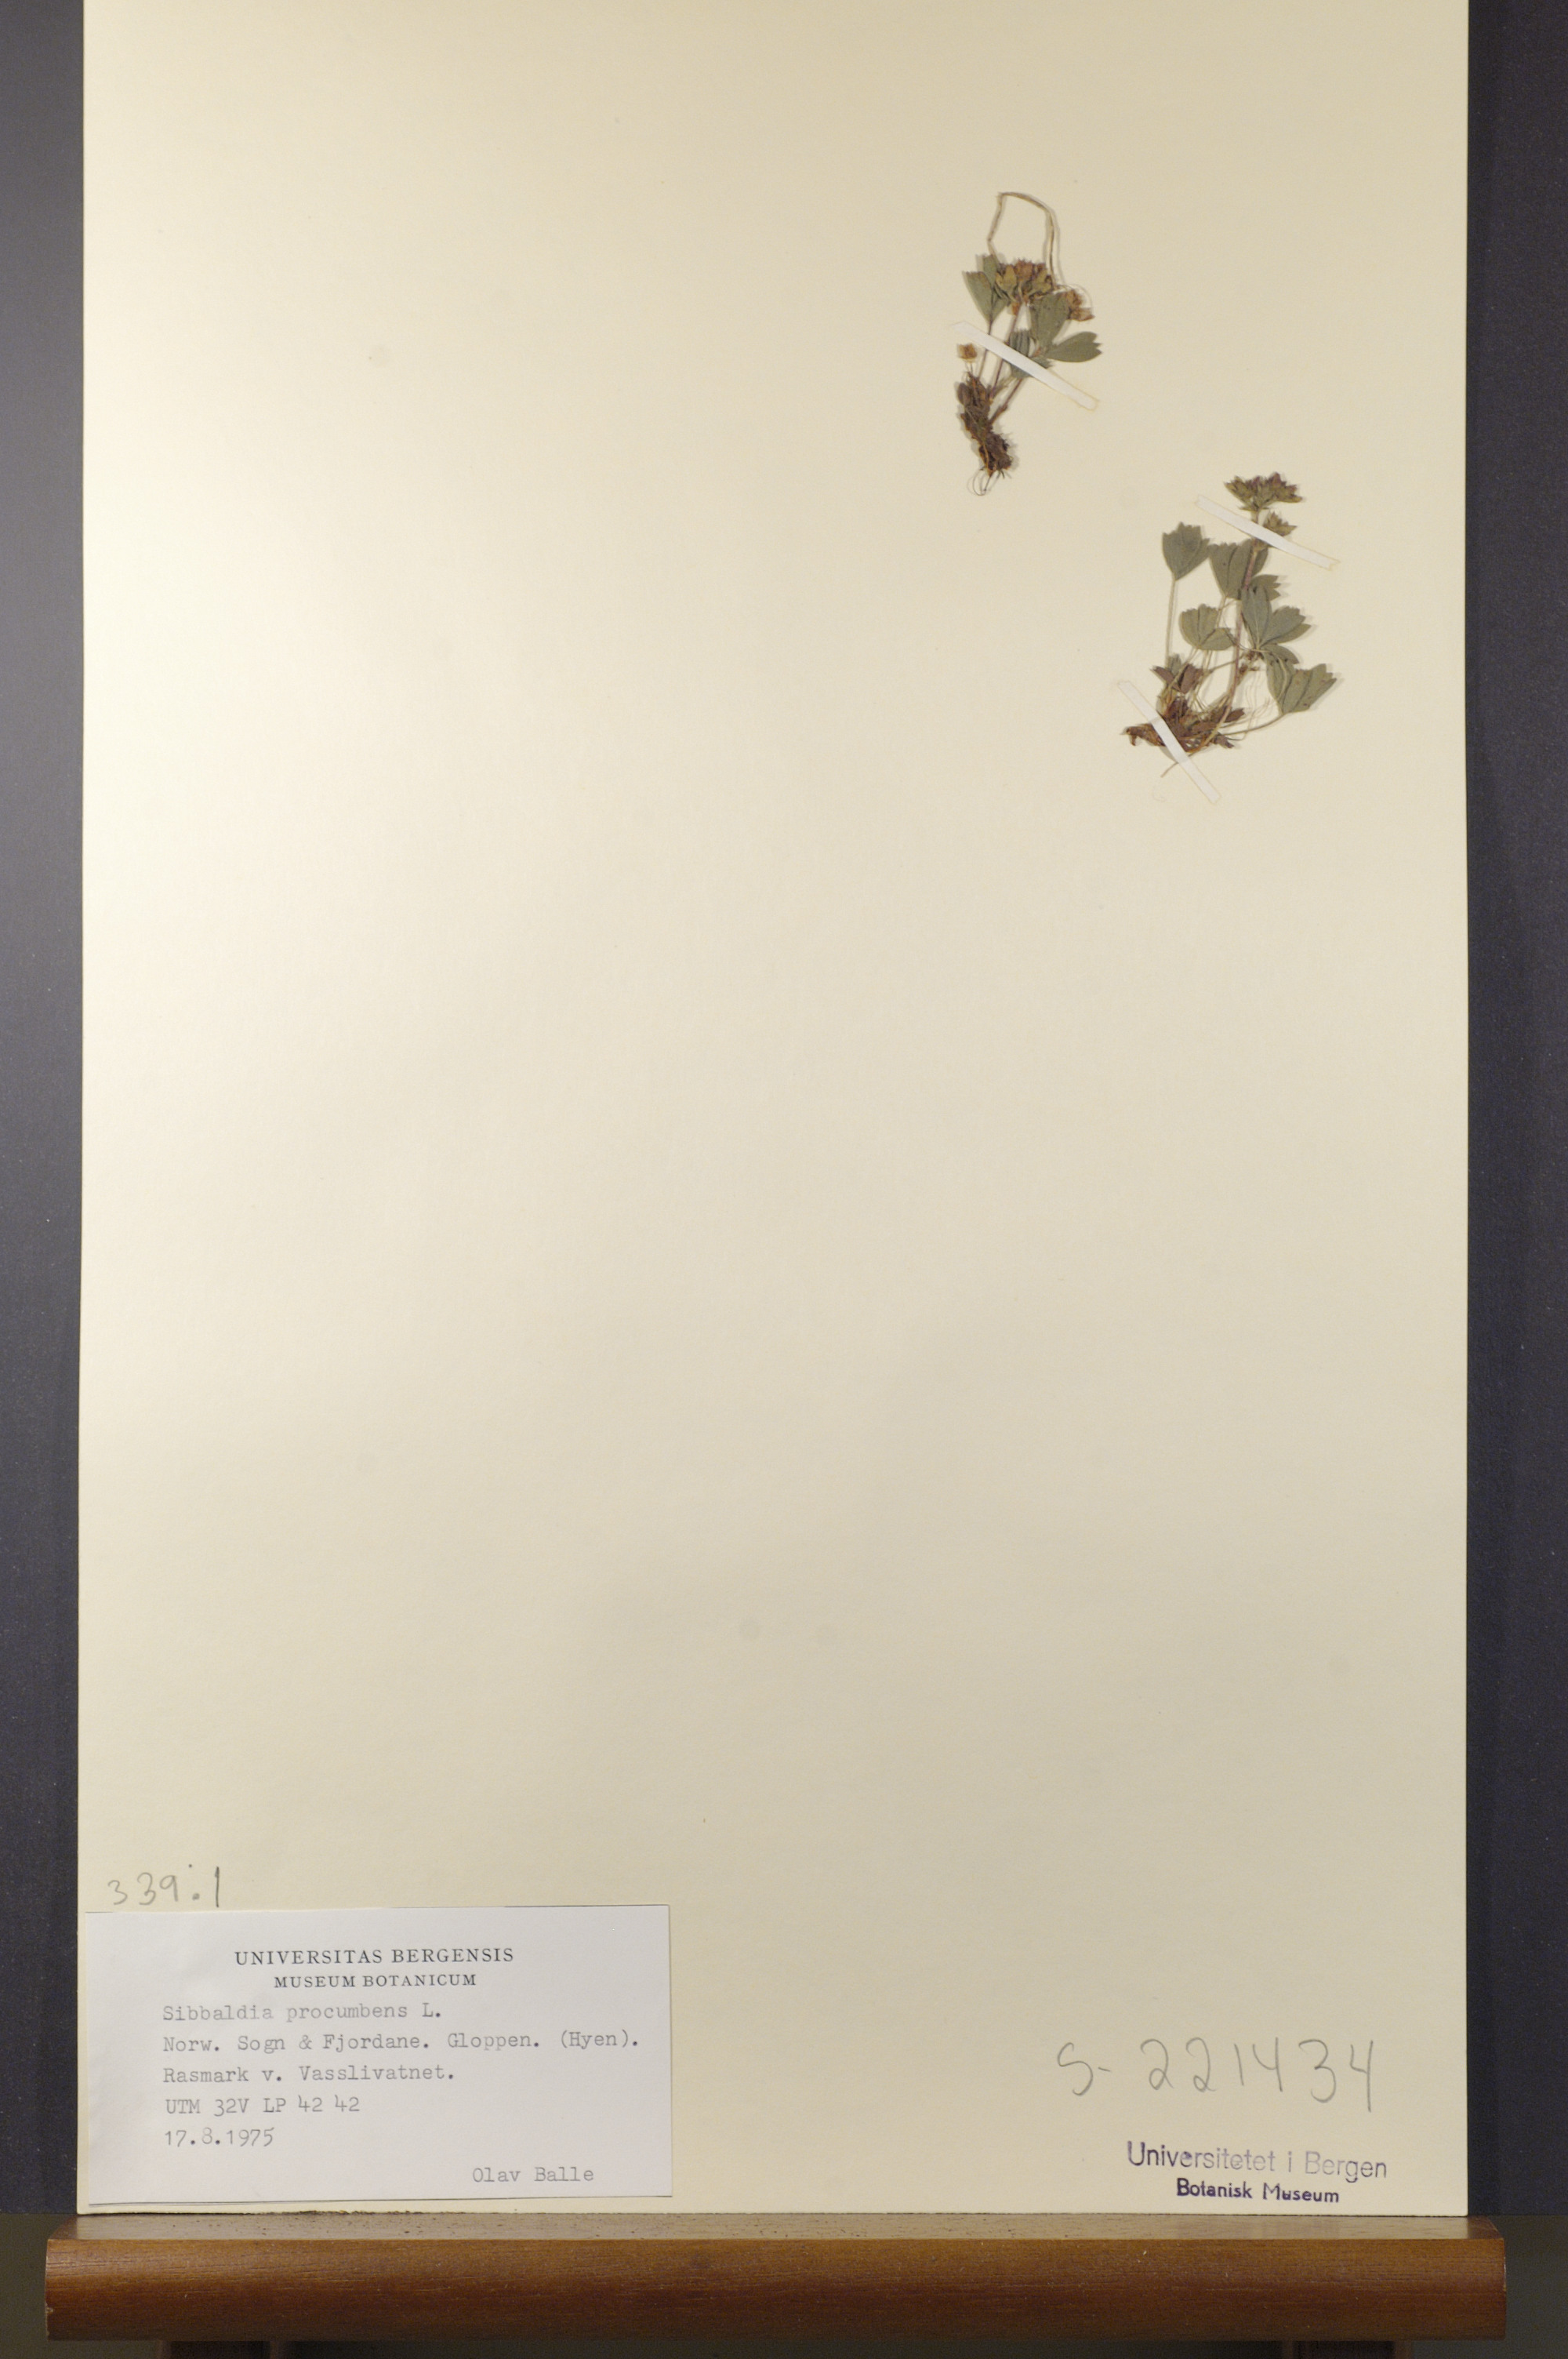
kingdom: Plantae
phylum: Tracheophyta
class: Magnoliopsida
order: Rosales
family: Rosaceae
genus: Sibbaldia
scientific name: Sibbaldia procumbens
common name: Creeping sibbaldia
